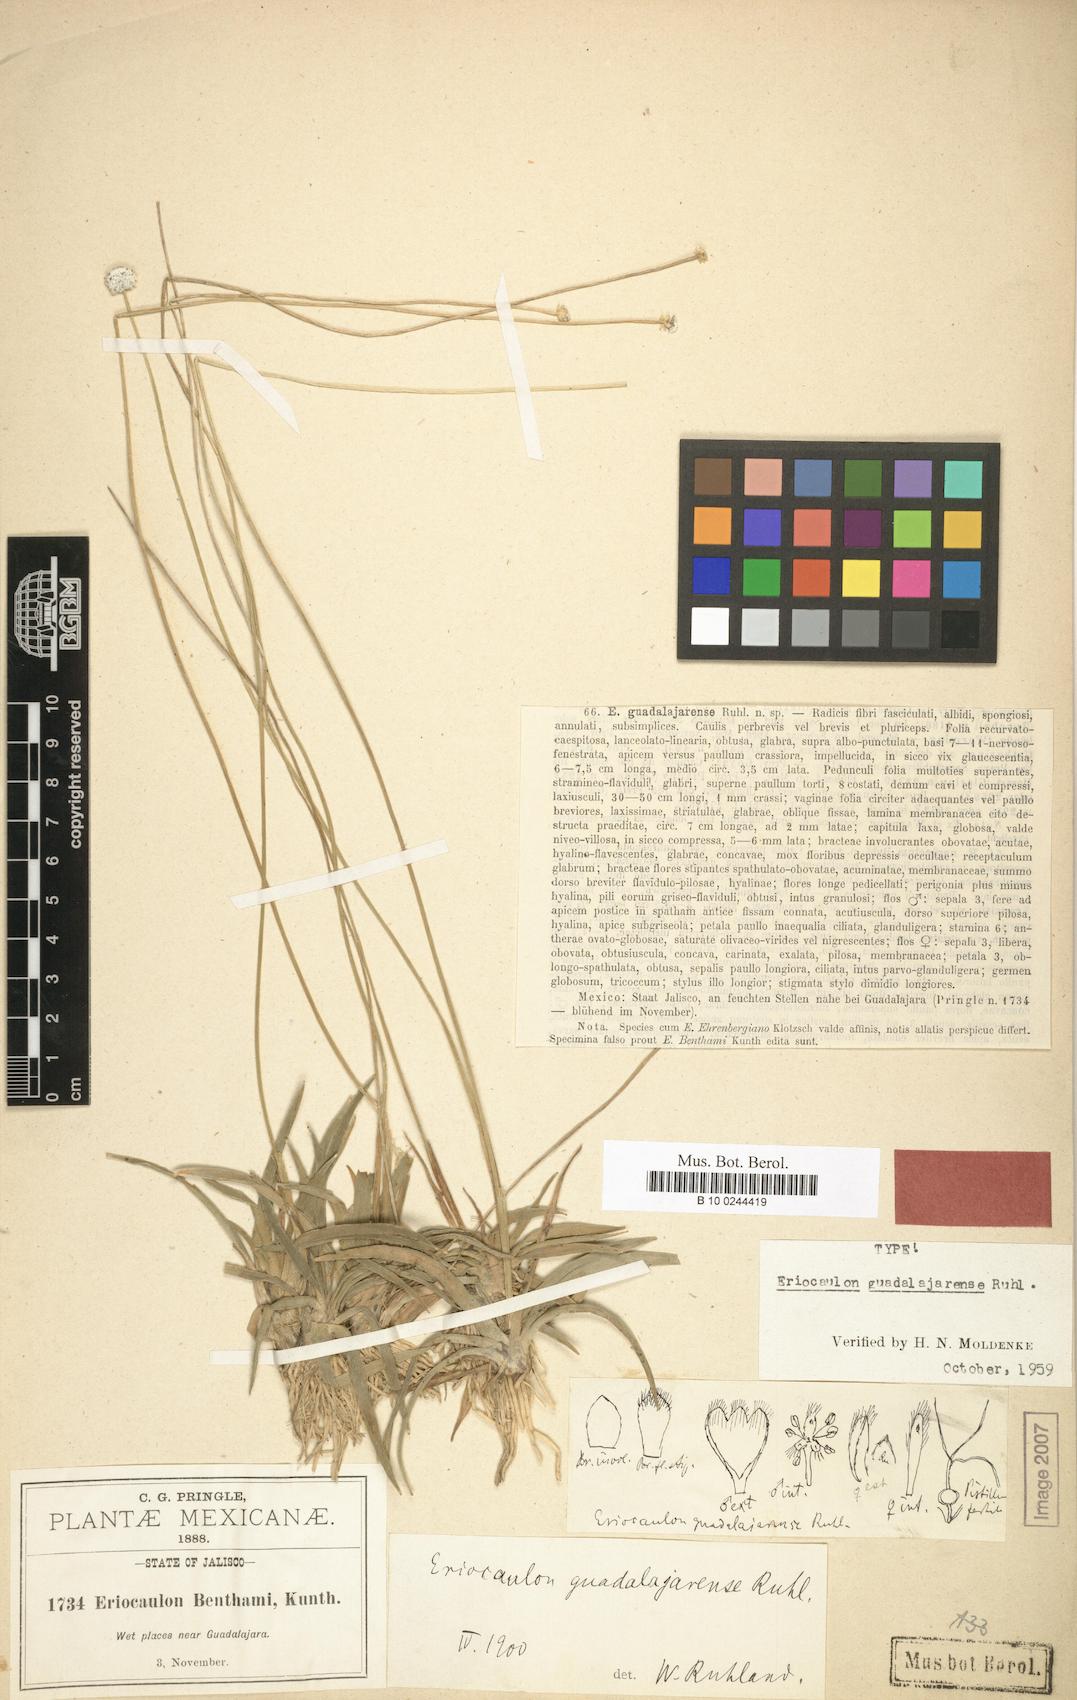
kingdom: Plantae
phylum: Tracheophyta
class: Liliopsida
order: Poales
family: Eriocaulaceae
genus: Eriocaulon
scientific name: Eriocaulon benthamii
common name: Bentham's pipewort
